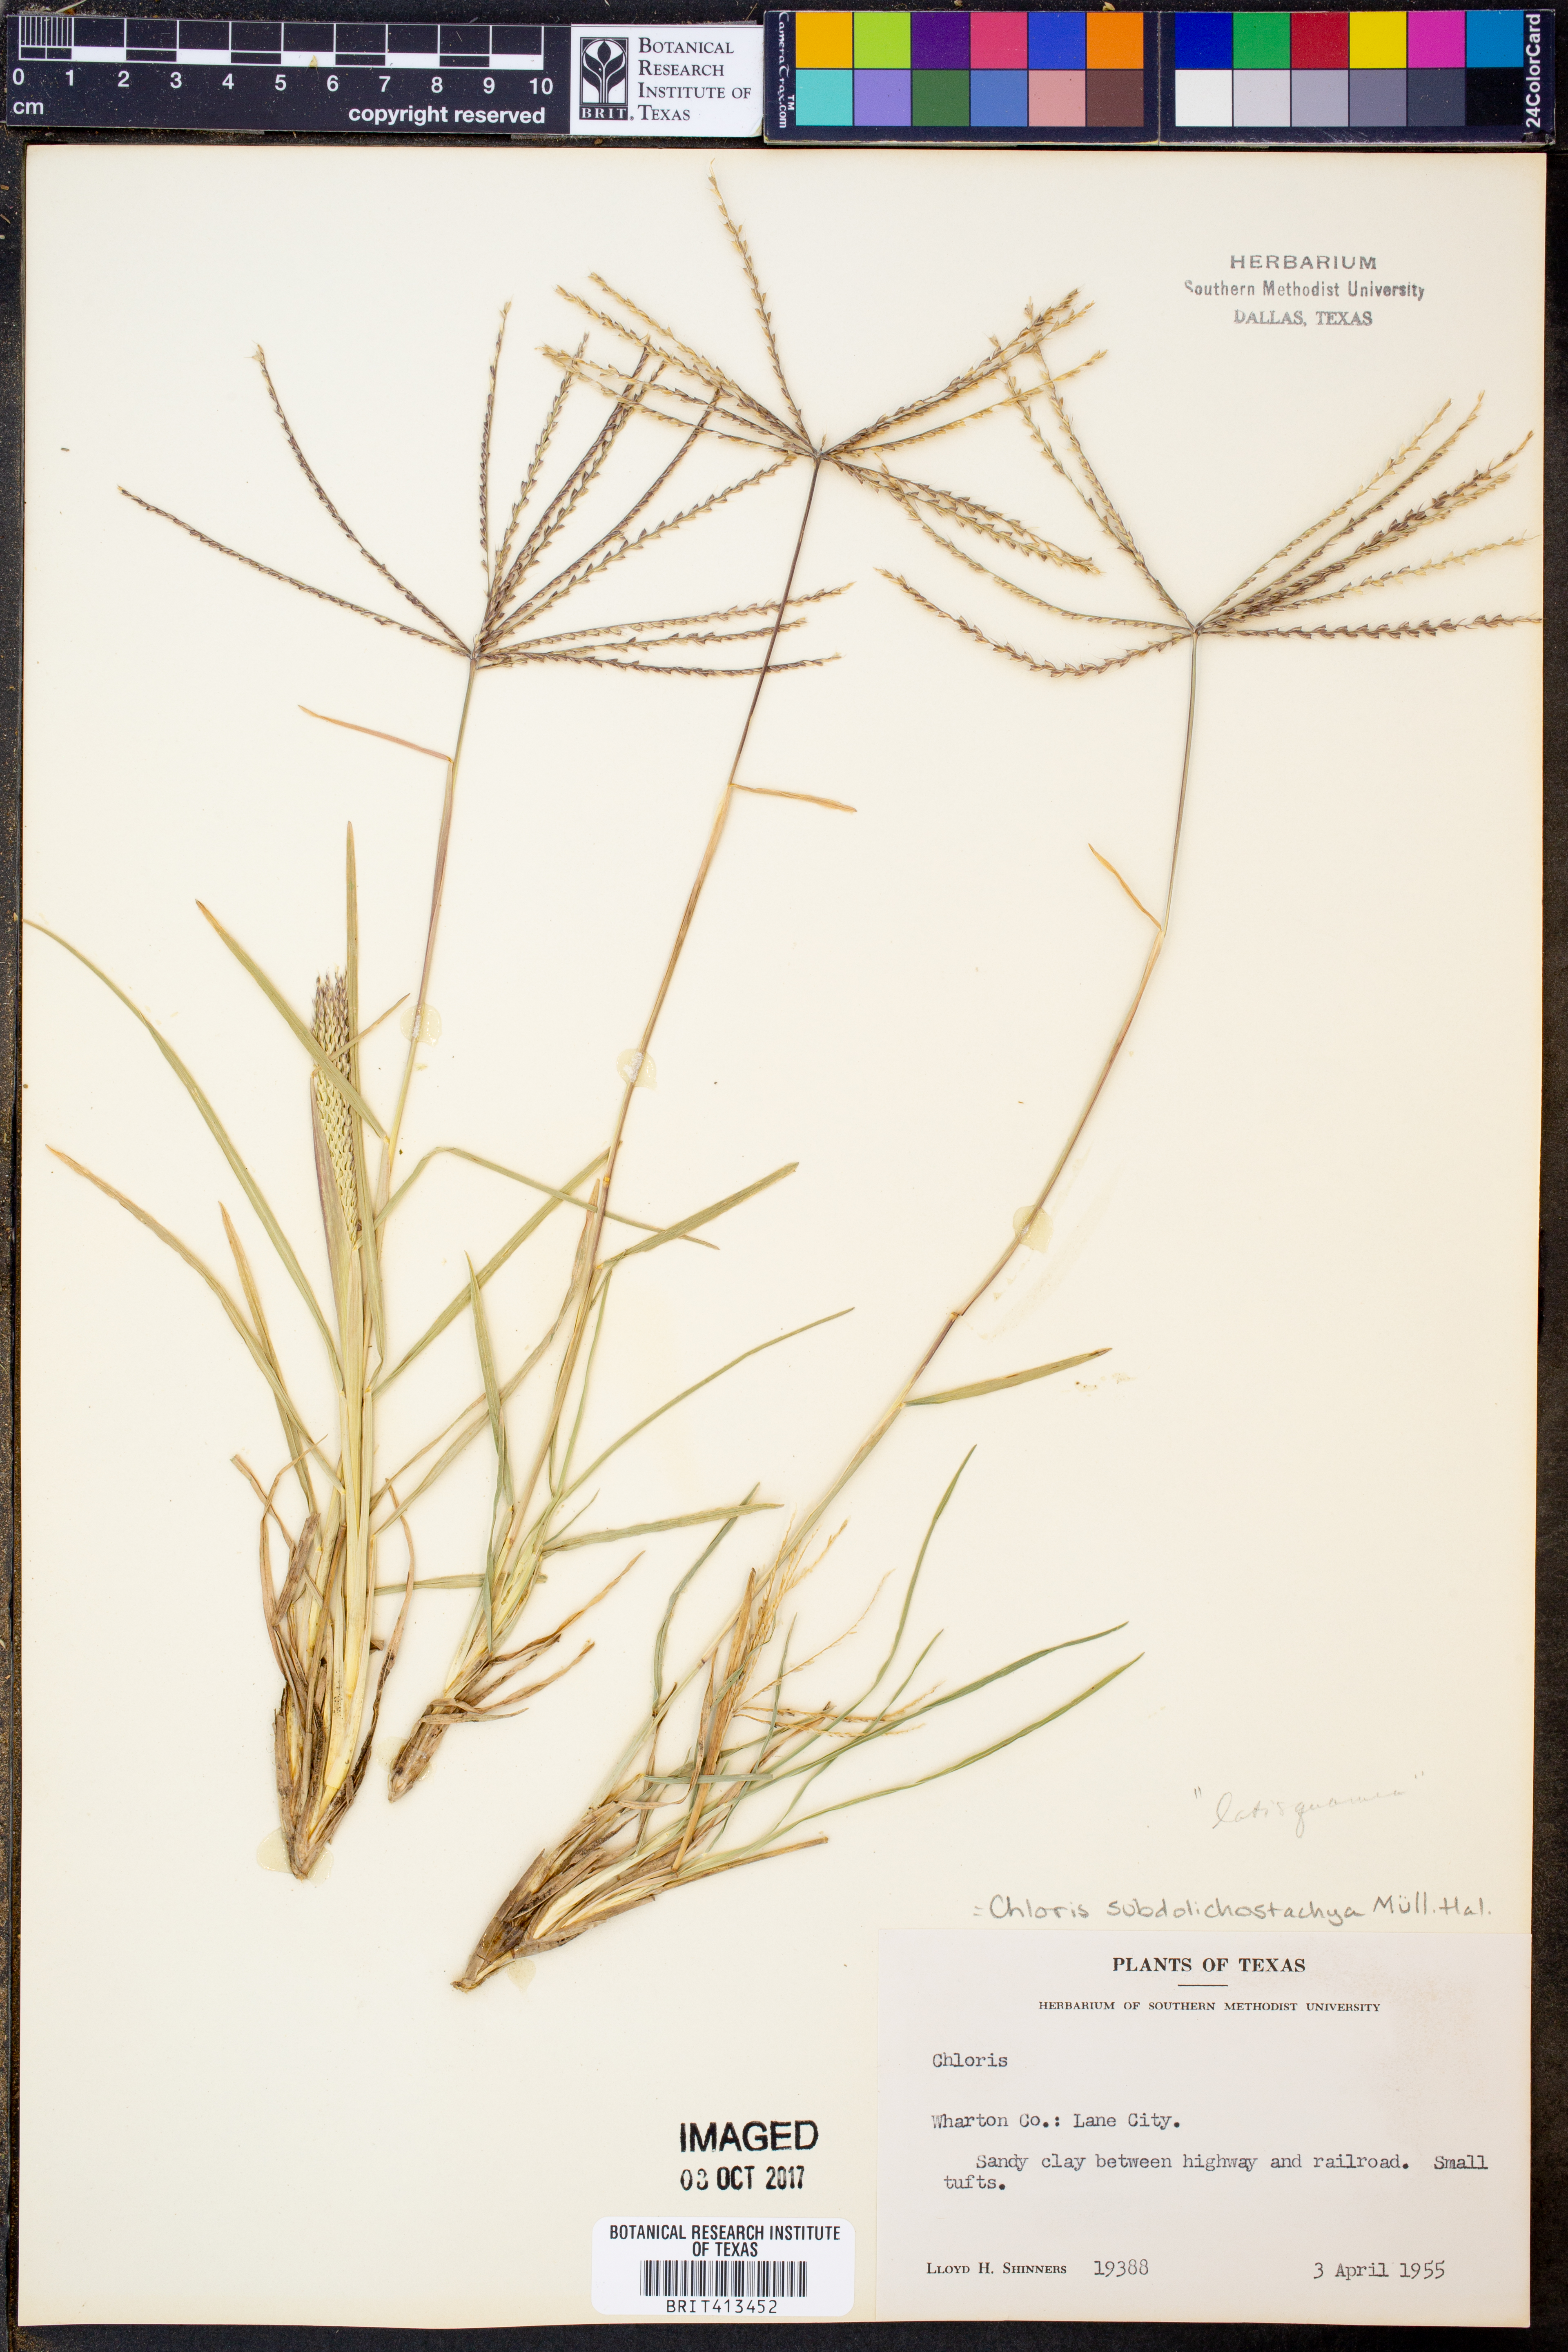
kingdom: Plantae
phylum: Tracheophyta
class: Liliopsida
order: Poales
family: Poaceae
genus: Chloris
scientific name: Chloris subdolichostachya
